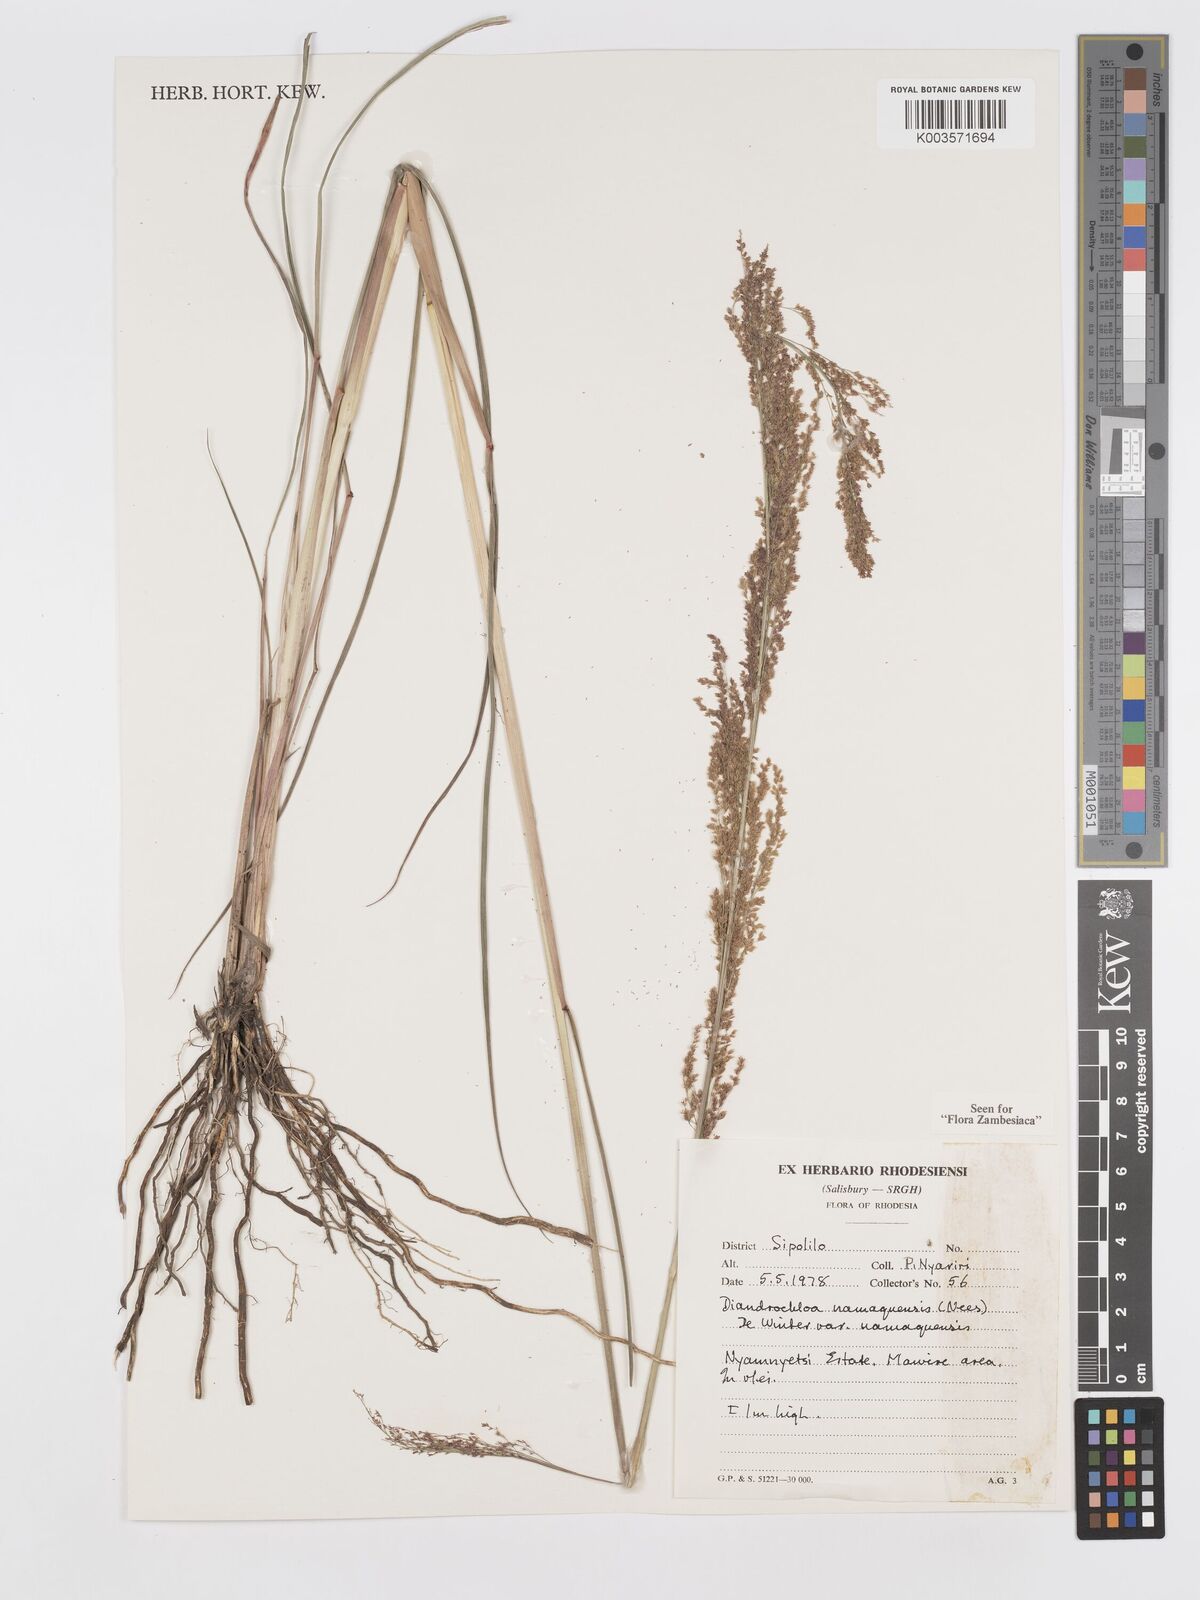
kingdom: Plantae
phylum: Tracheophyta
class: Liliopsida
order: Poales
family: Poaceae
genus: Eragrostis
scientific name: Eragrostis japonica
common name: Pond lovegrass
